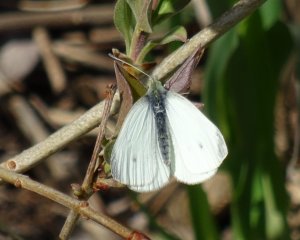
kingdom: Animalia
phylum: Arthropoda
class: Insecta
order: Lepidoptera
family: Pieridae
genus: Pieris
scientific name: Pieris rapae
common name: Cabbage White
